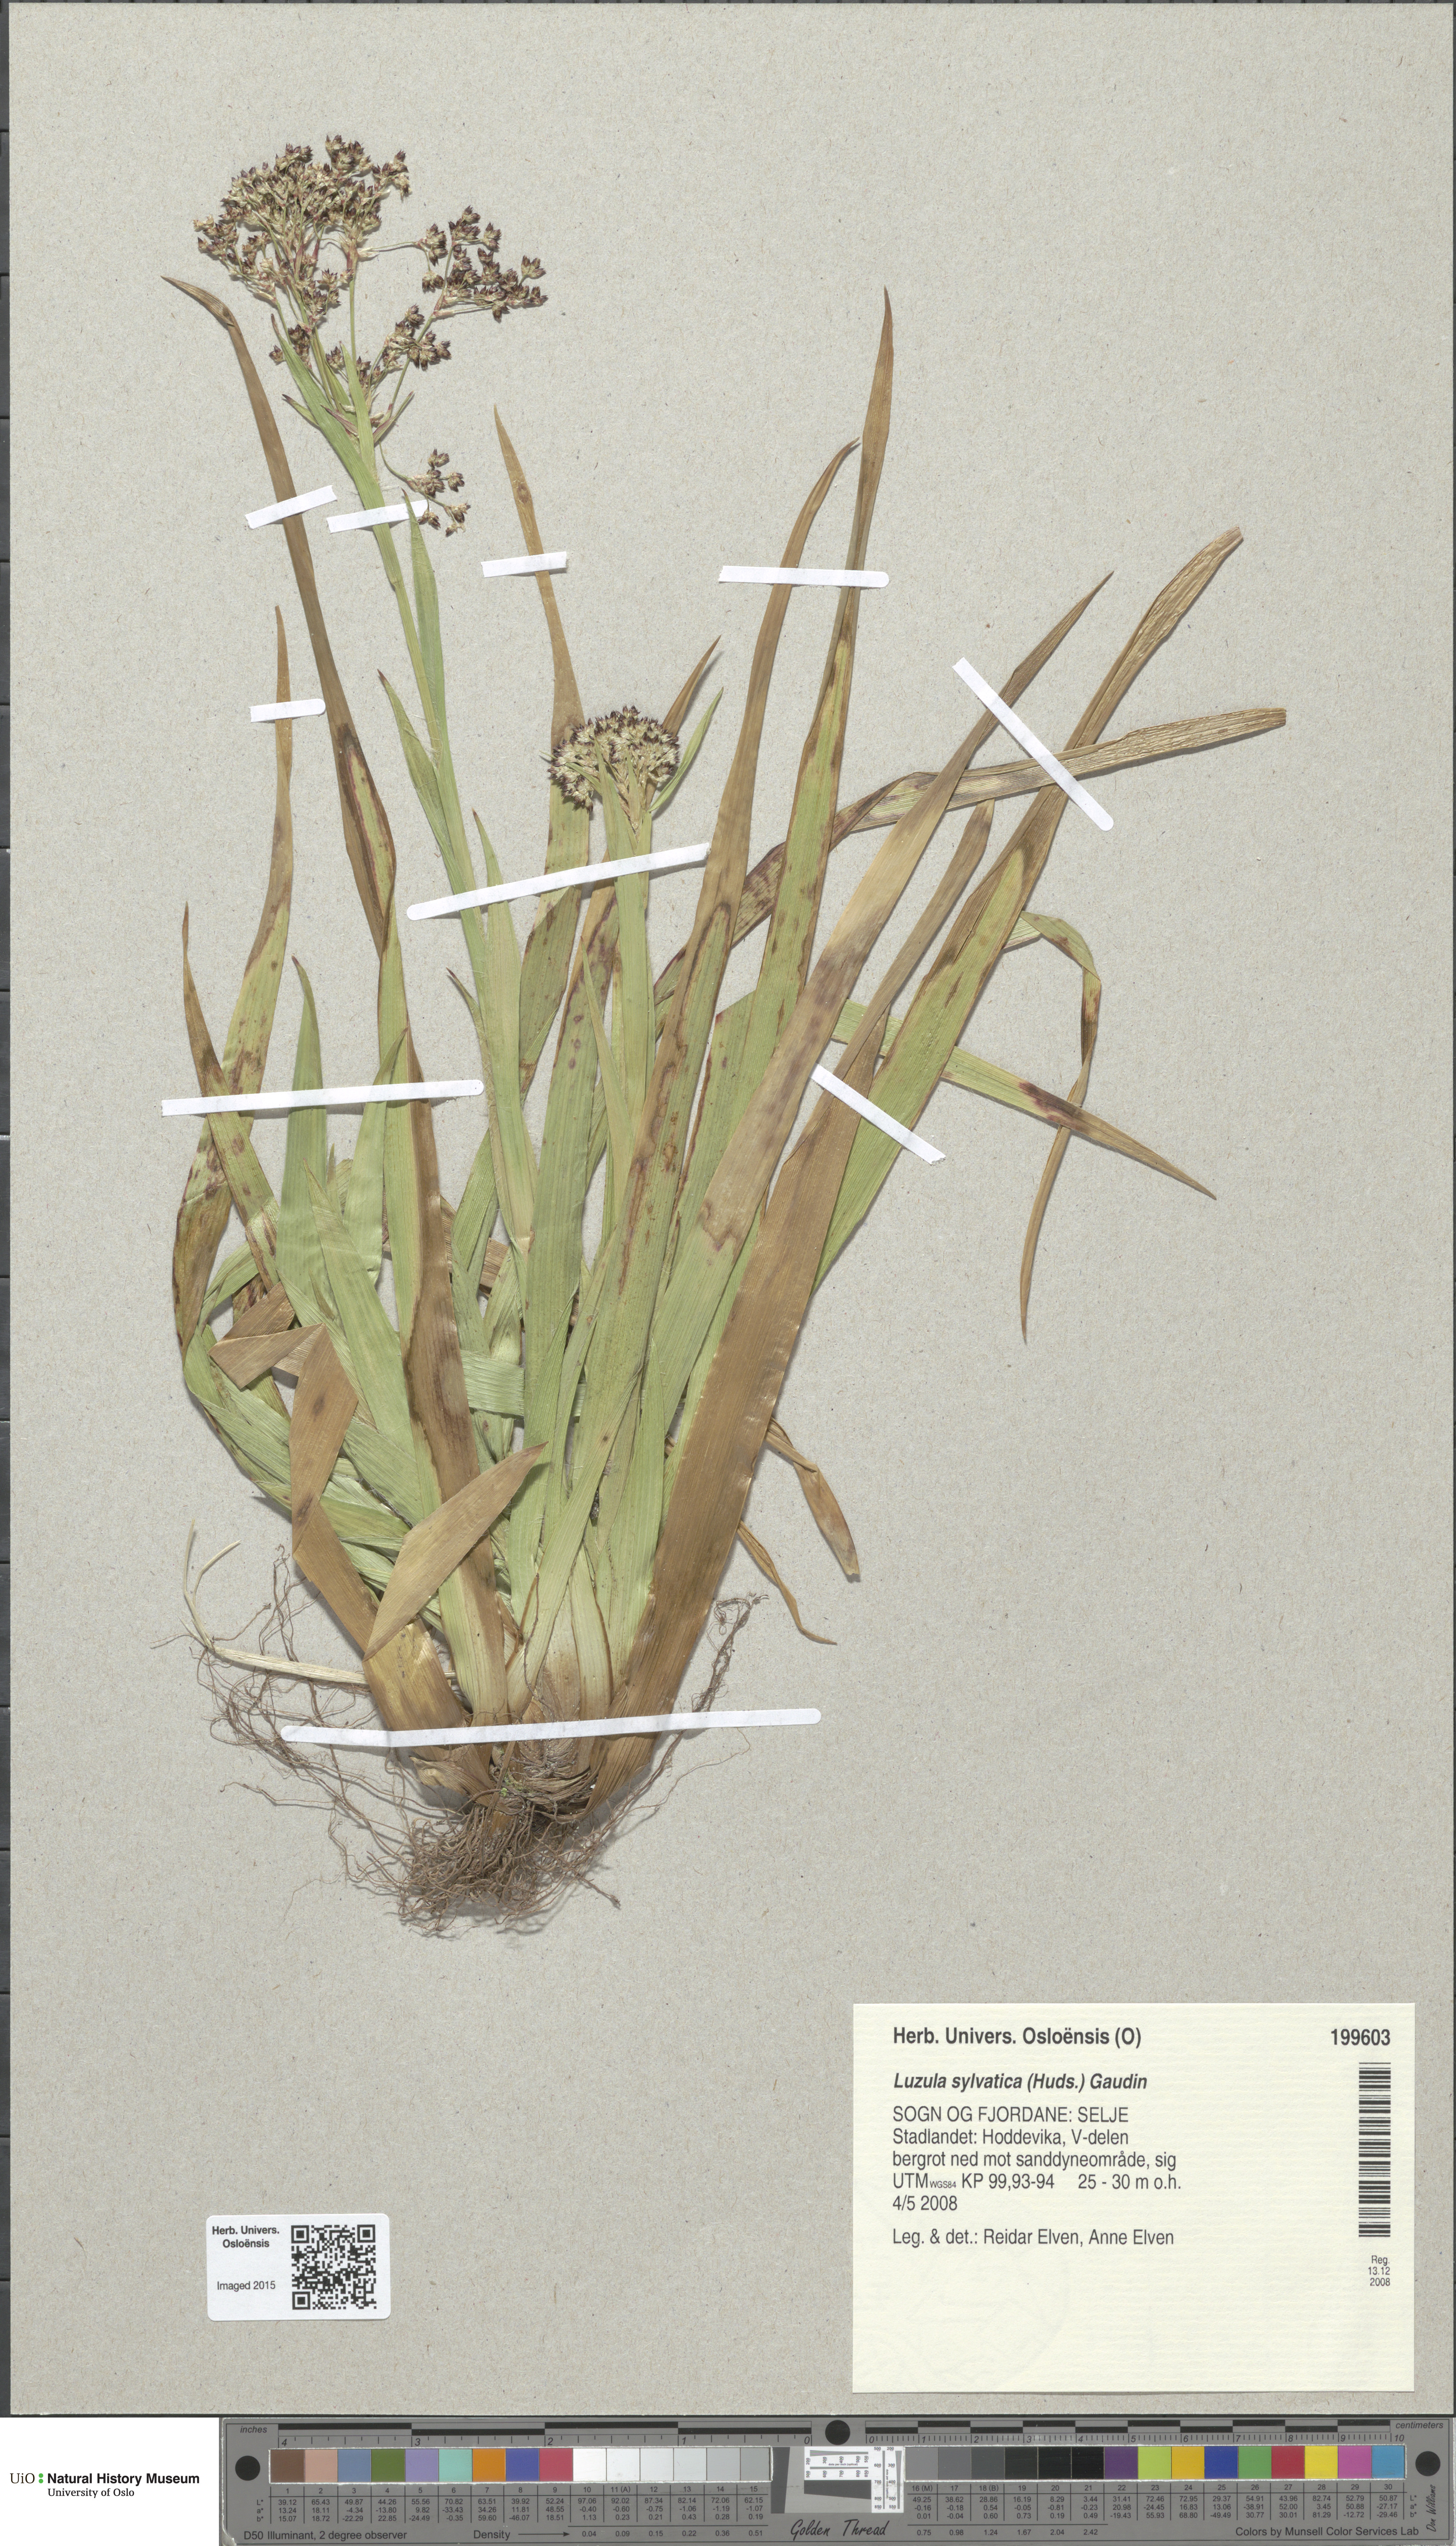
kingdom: Plantae
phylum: Tracheophyta
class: Liliopsida
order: Poales
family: Juncaceae
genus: Luzula
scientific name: Luzula sylvatica
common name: Great wood-rush
